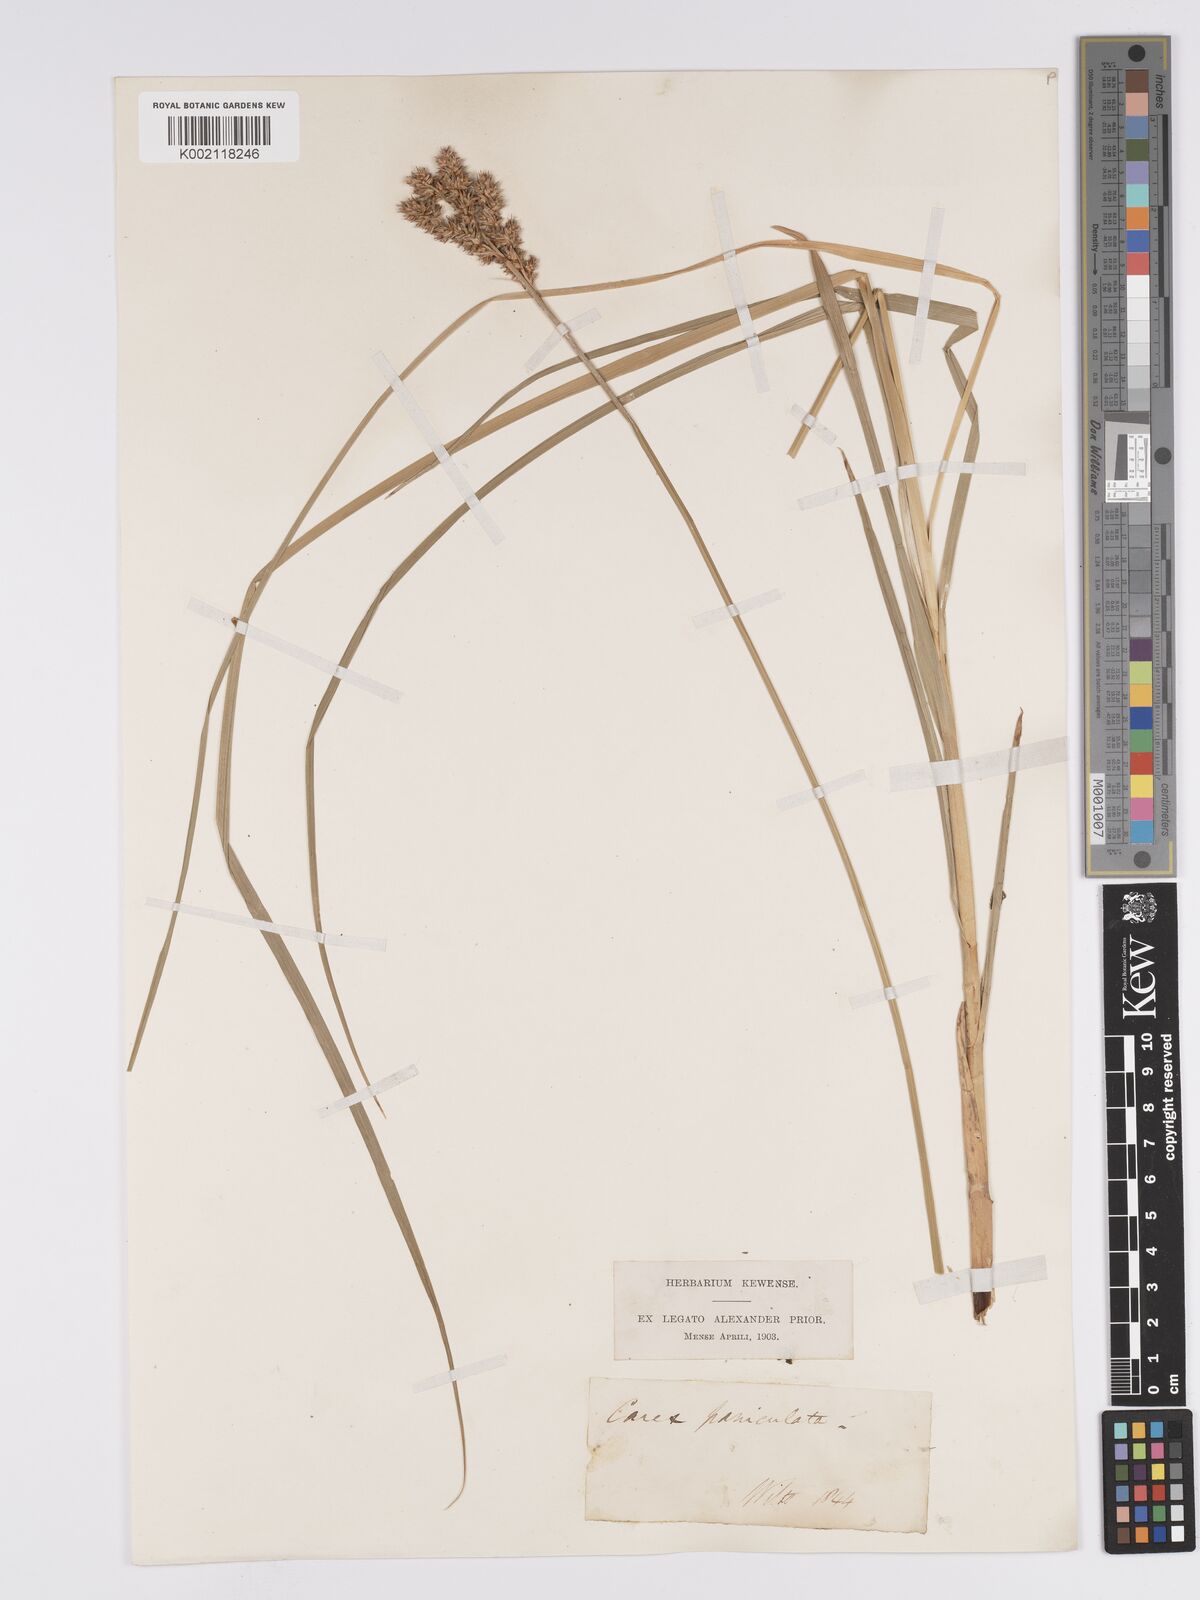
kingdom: Plantae
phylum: Tracheophyta
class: Liliopsida
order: Poales
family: Cyperaceae
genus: Carex
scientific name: Carex paniculata
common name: Greater tussock-sedge
